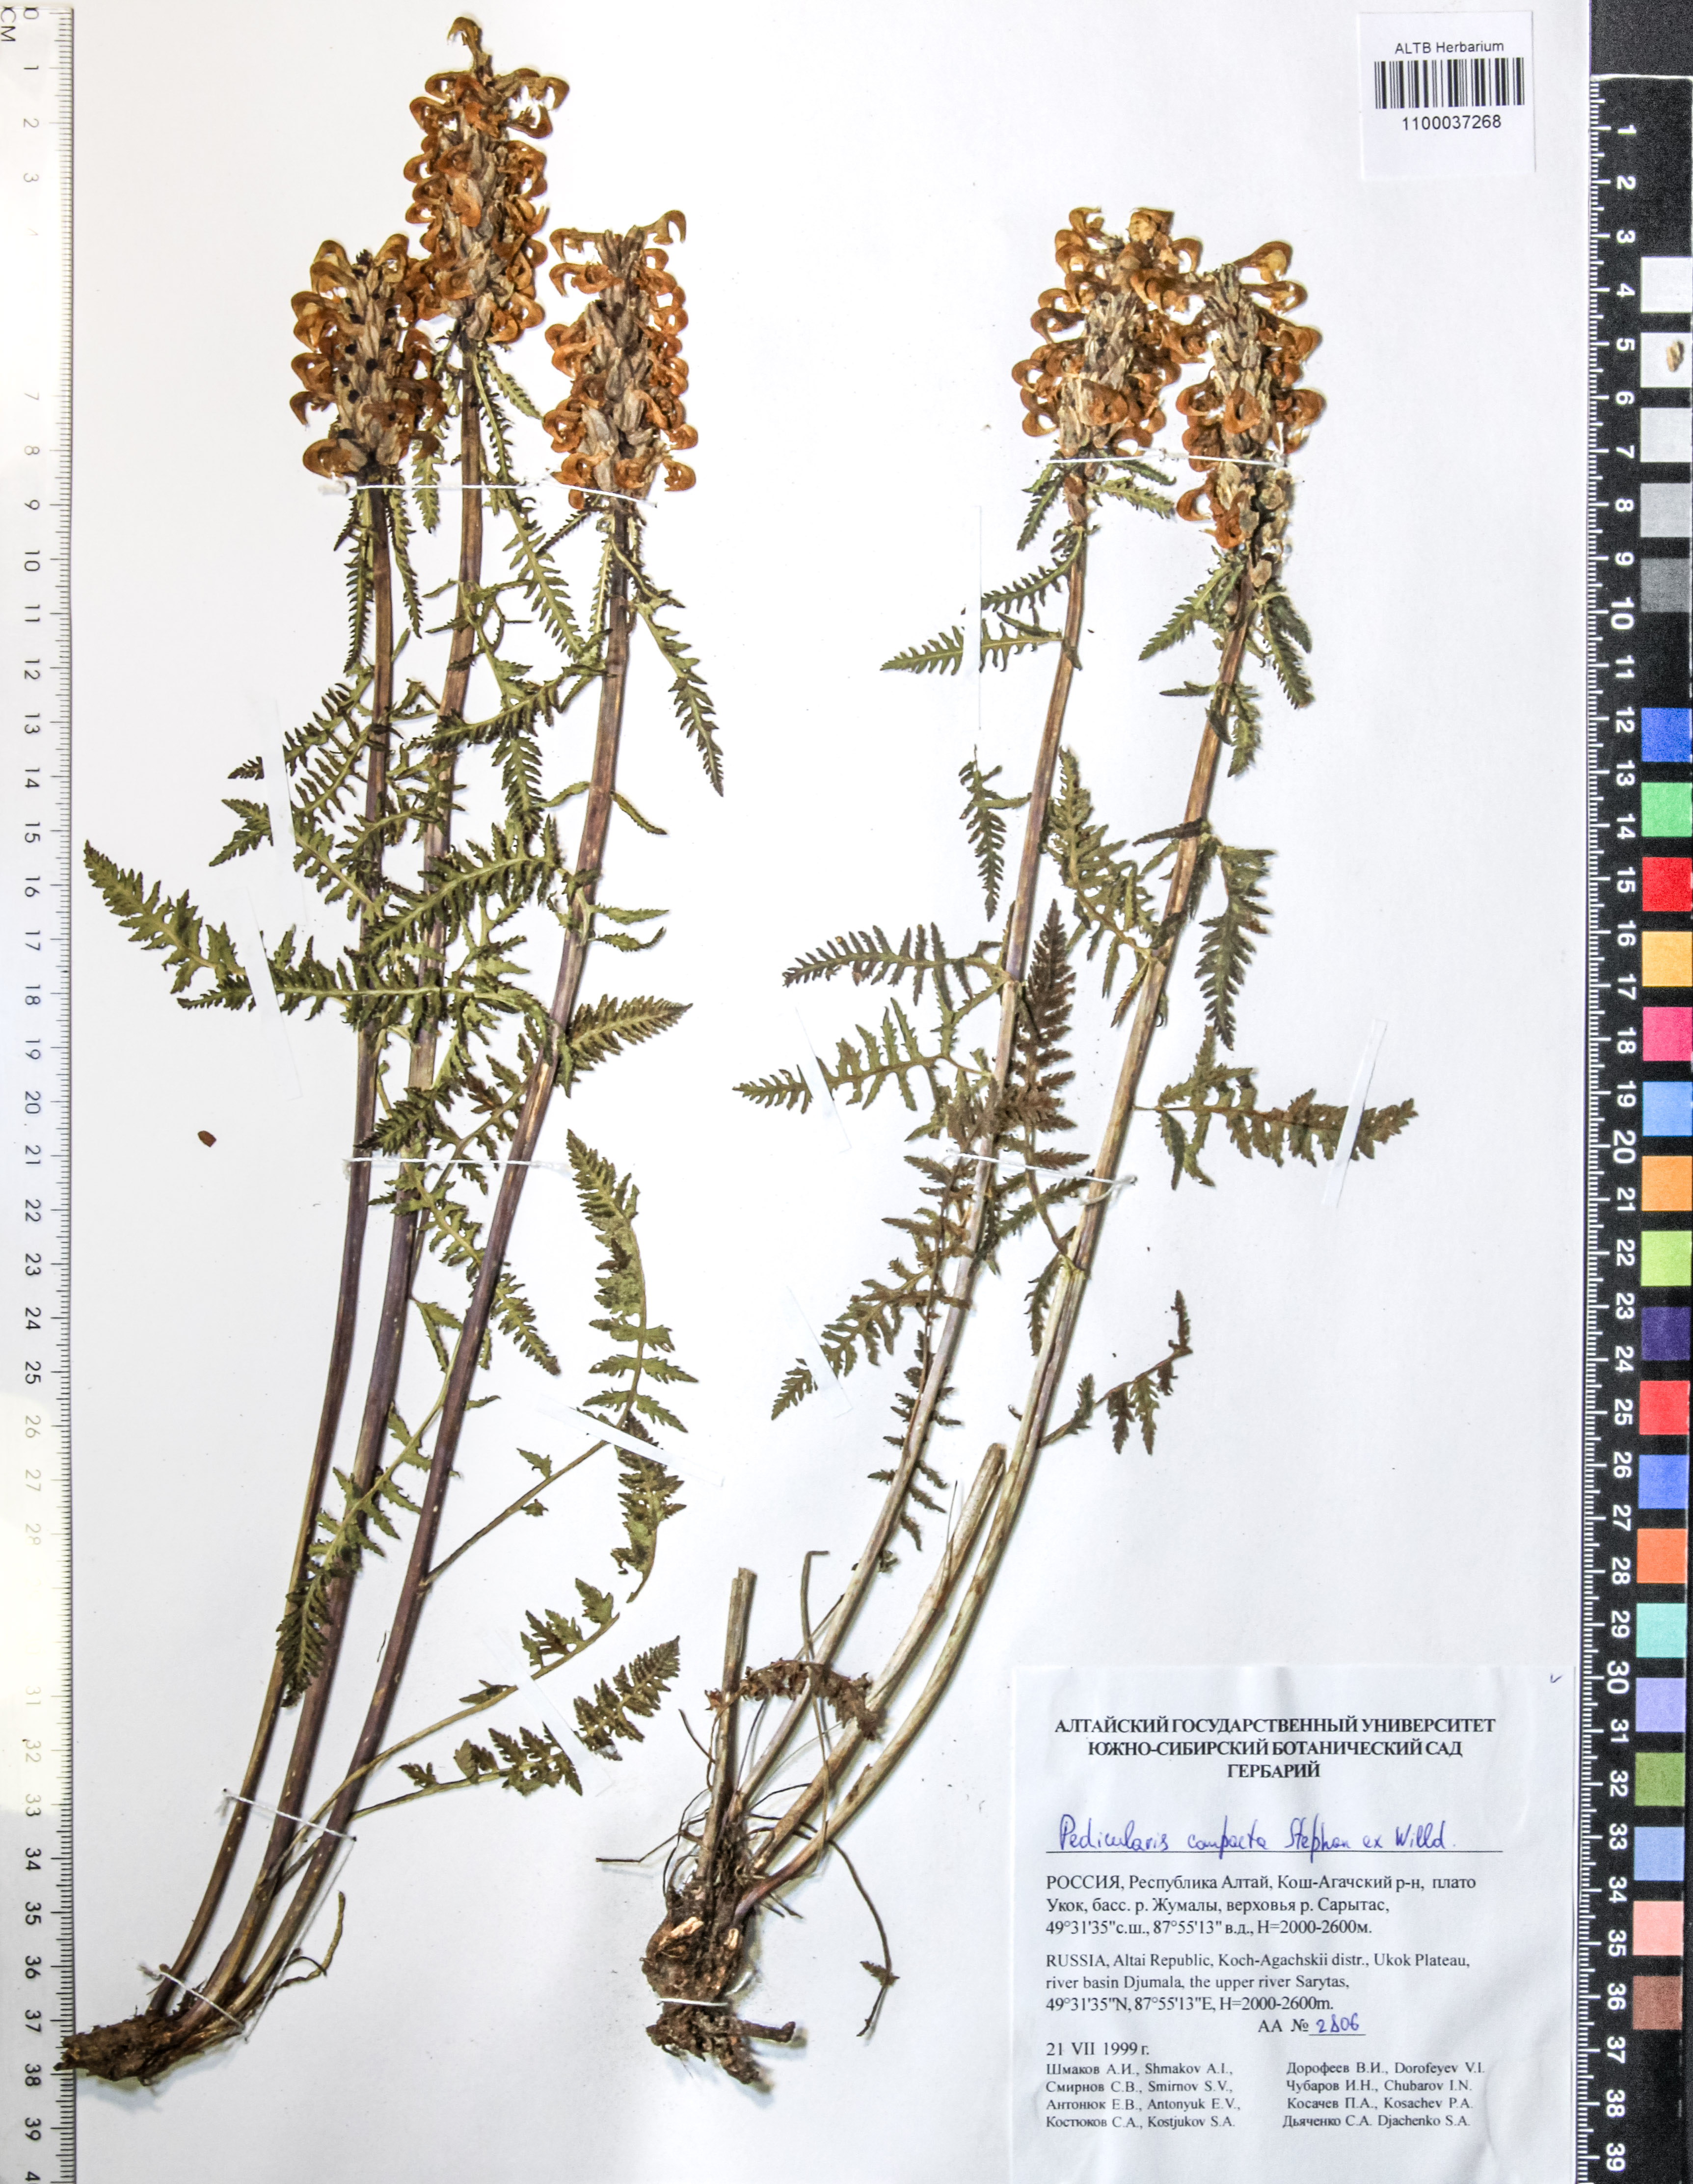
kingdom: Plantae
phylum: Tracheophyta
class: Magnoliopsida
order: Lamiales
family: Orobanchaceae
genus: Pedicularis
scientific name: Pedicularis compacta
